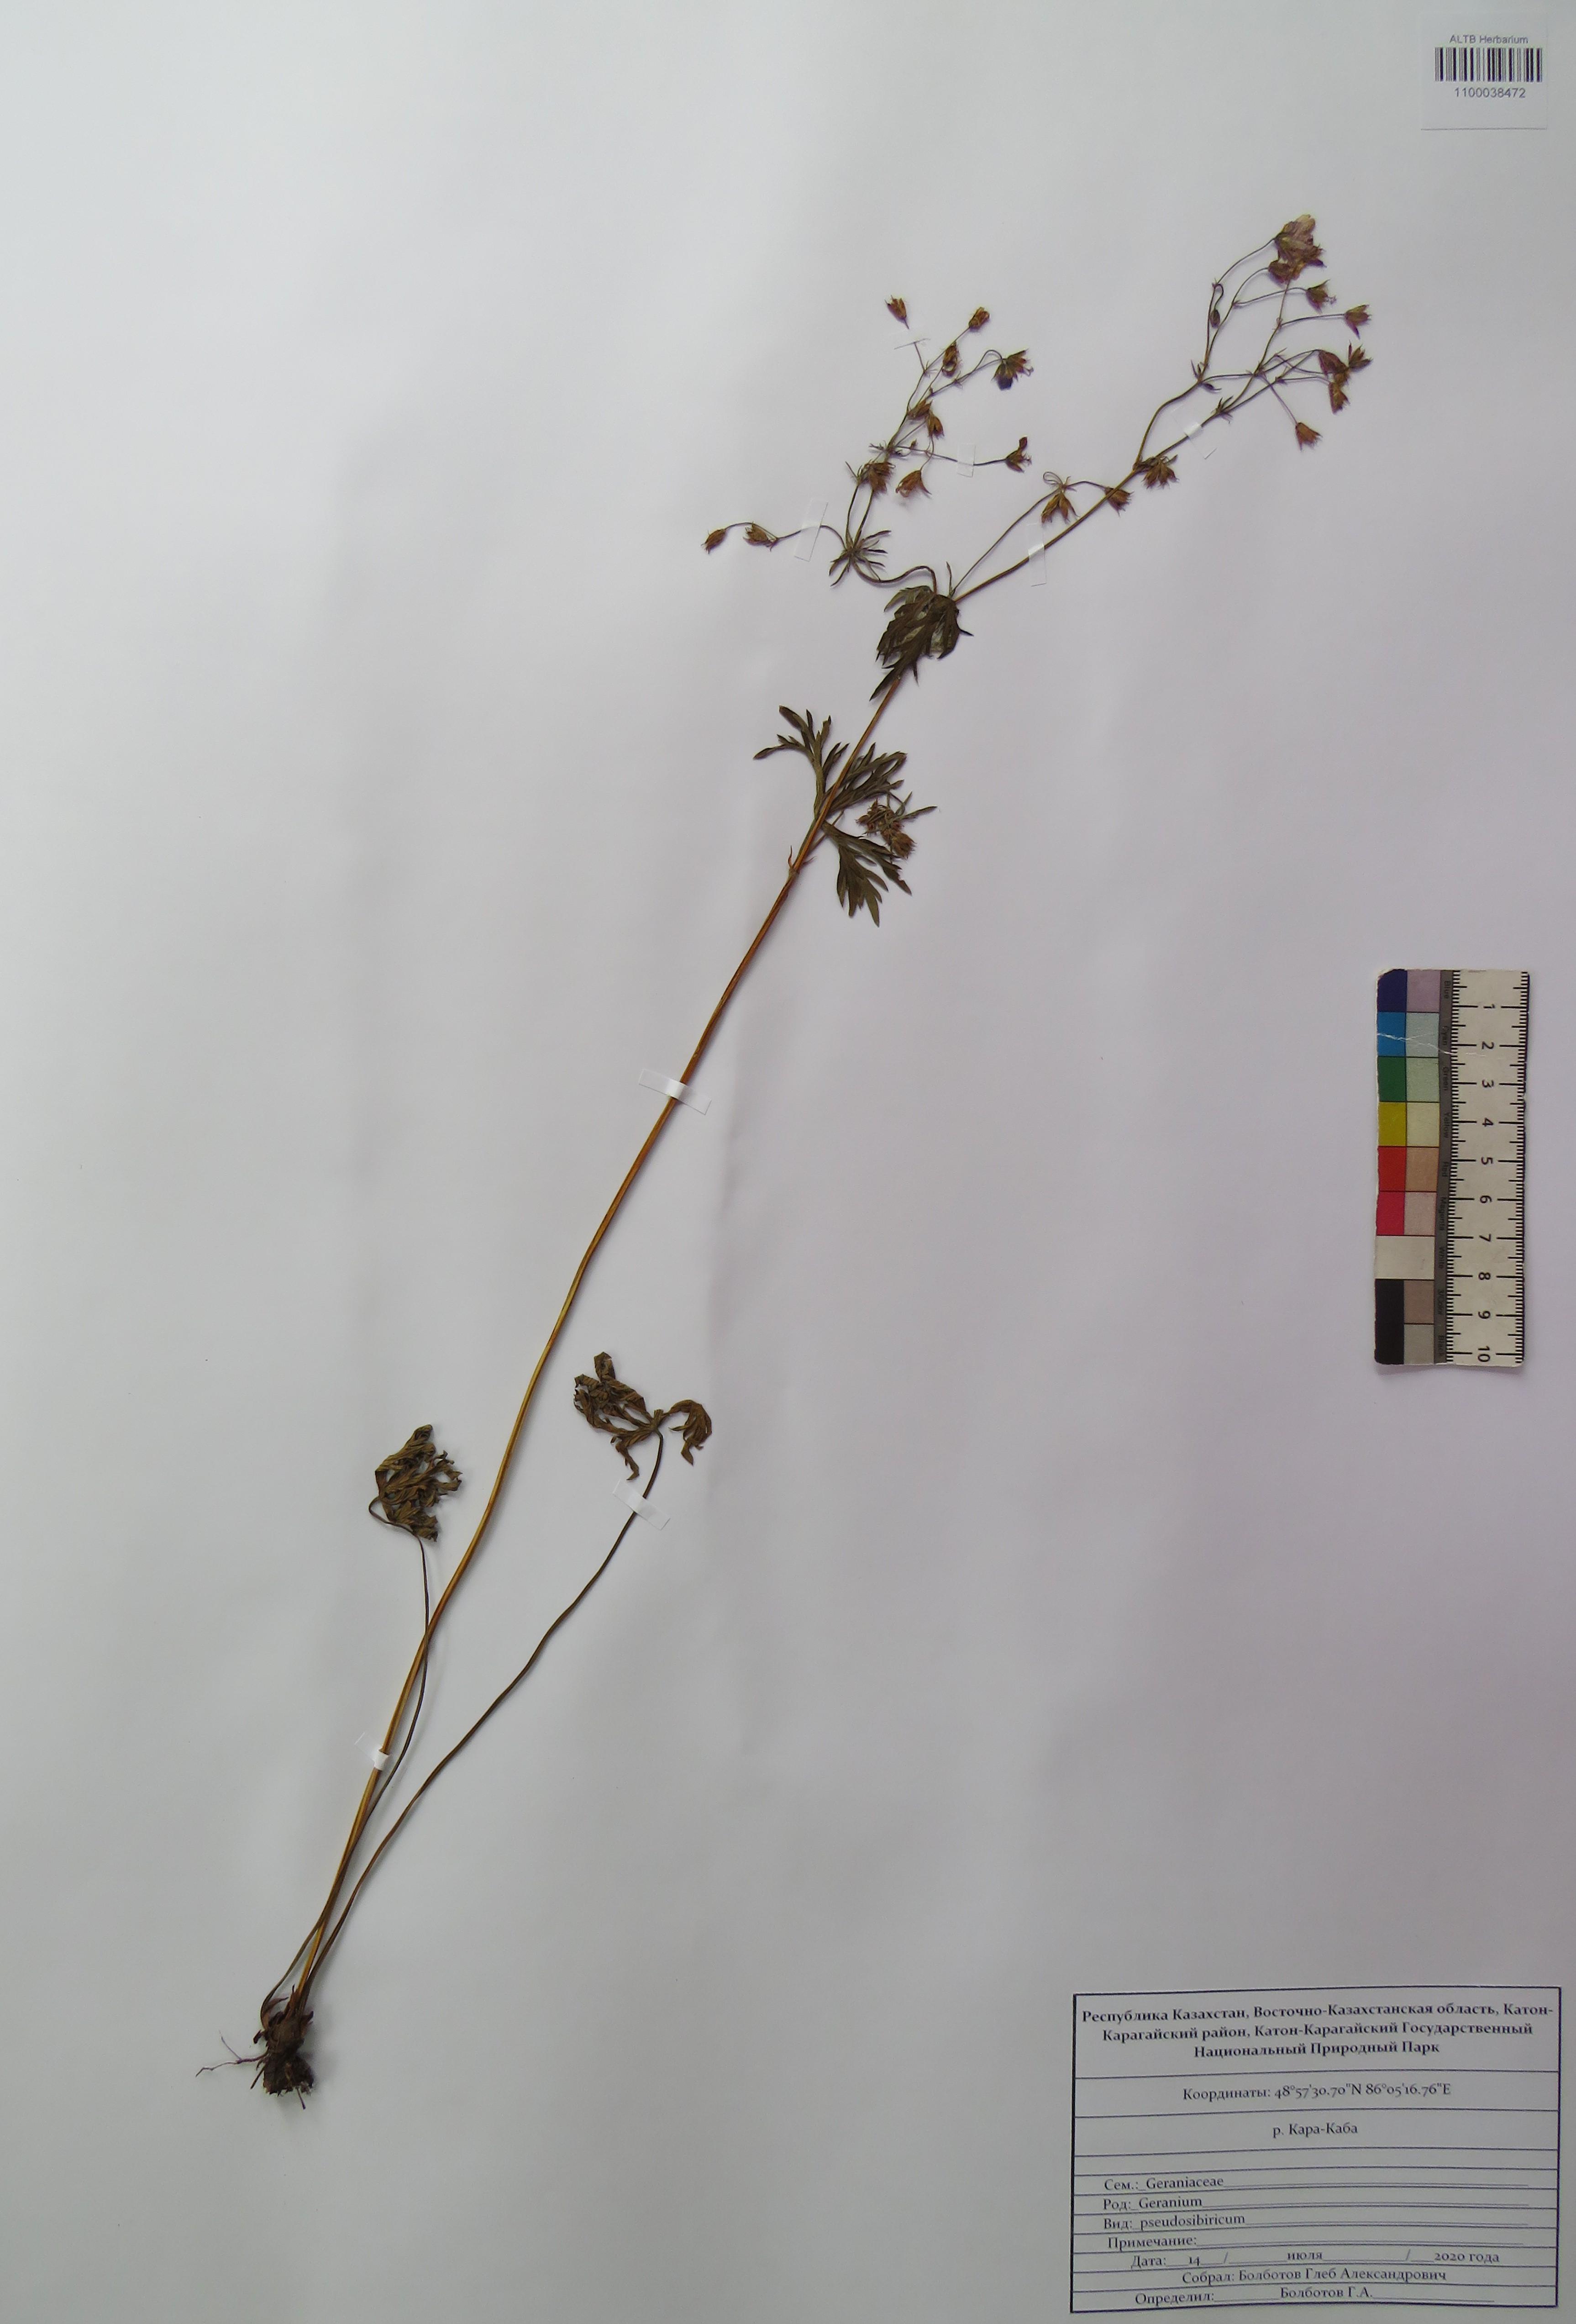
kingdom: Plantae
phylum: Tracheophyta
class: Magnoliopsida
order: Geraniales
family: Geraniaceae
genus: Geranium
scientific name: Geranium pseudosibiricum
